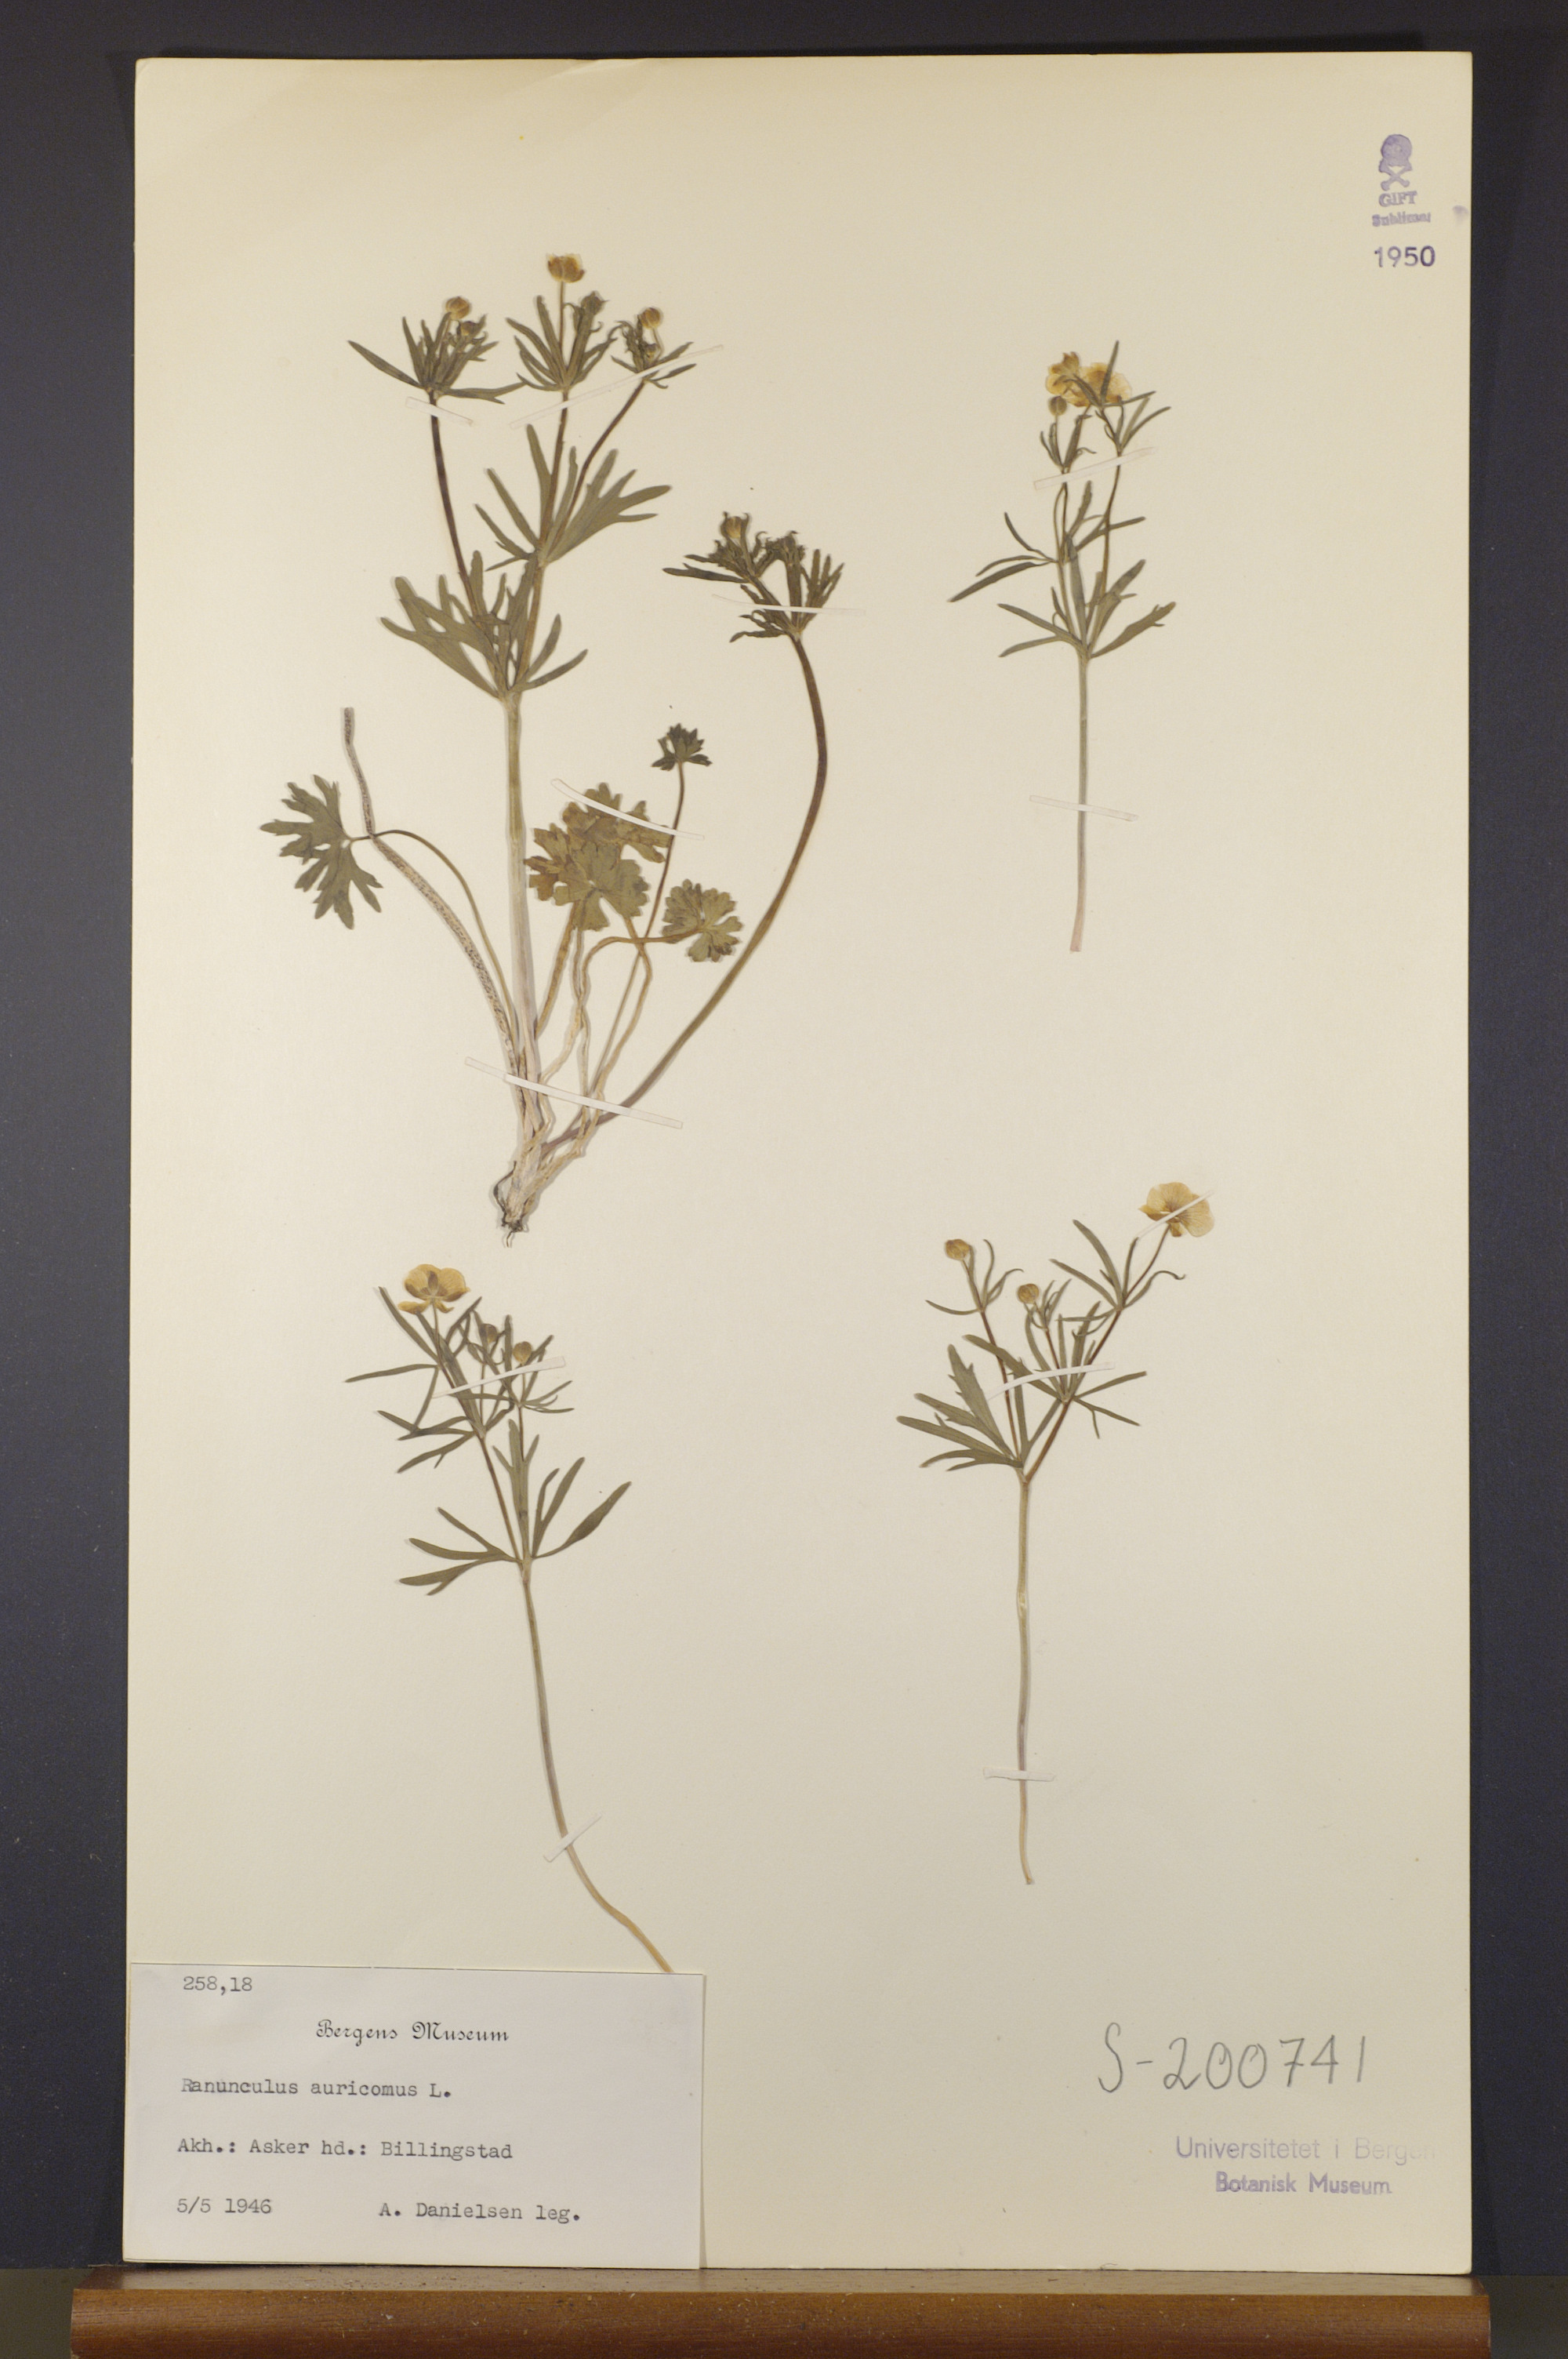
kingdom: Plantae
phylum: Tracheophyta
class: Magnoliopsida
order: Ranunculales
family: Ranunculaceae
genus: Ranunculus
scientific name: Ranunculus auricomus
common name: Goldilocks buttercup
